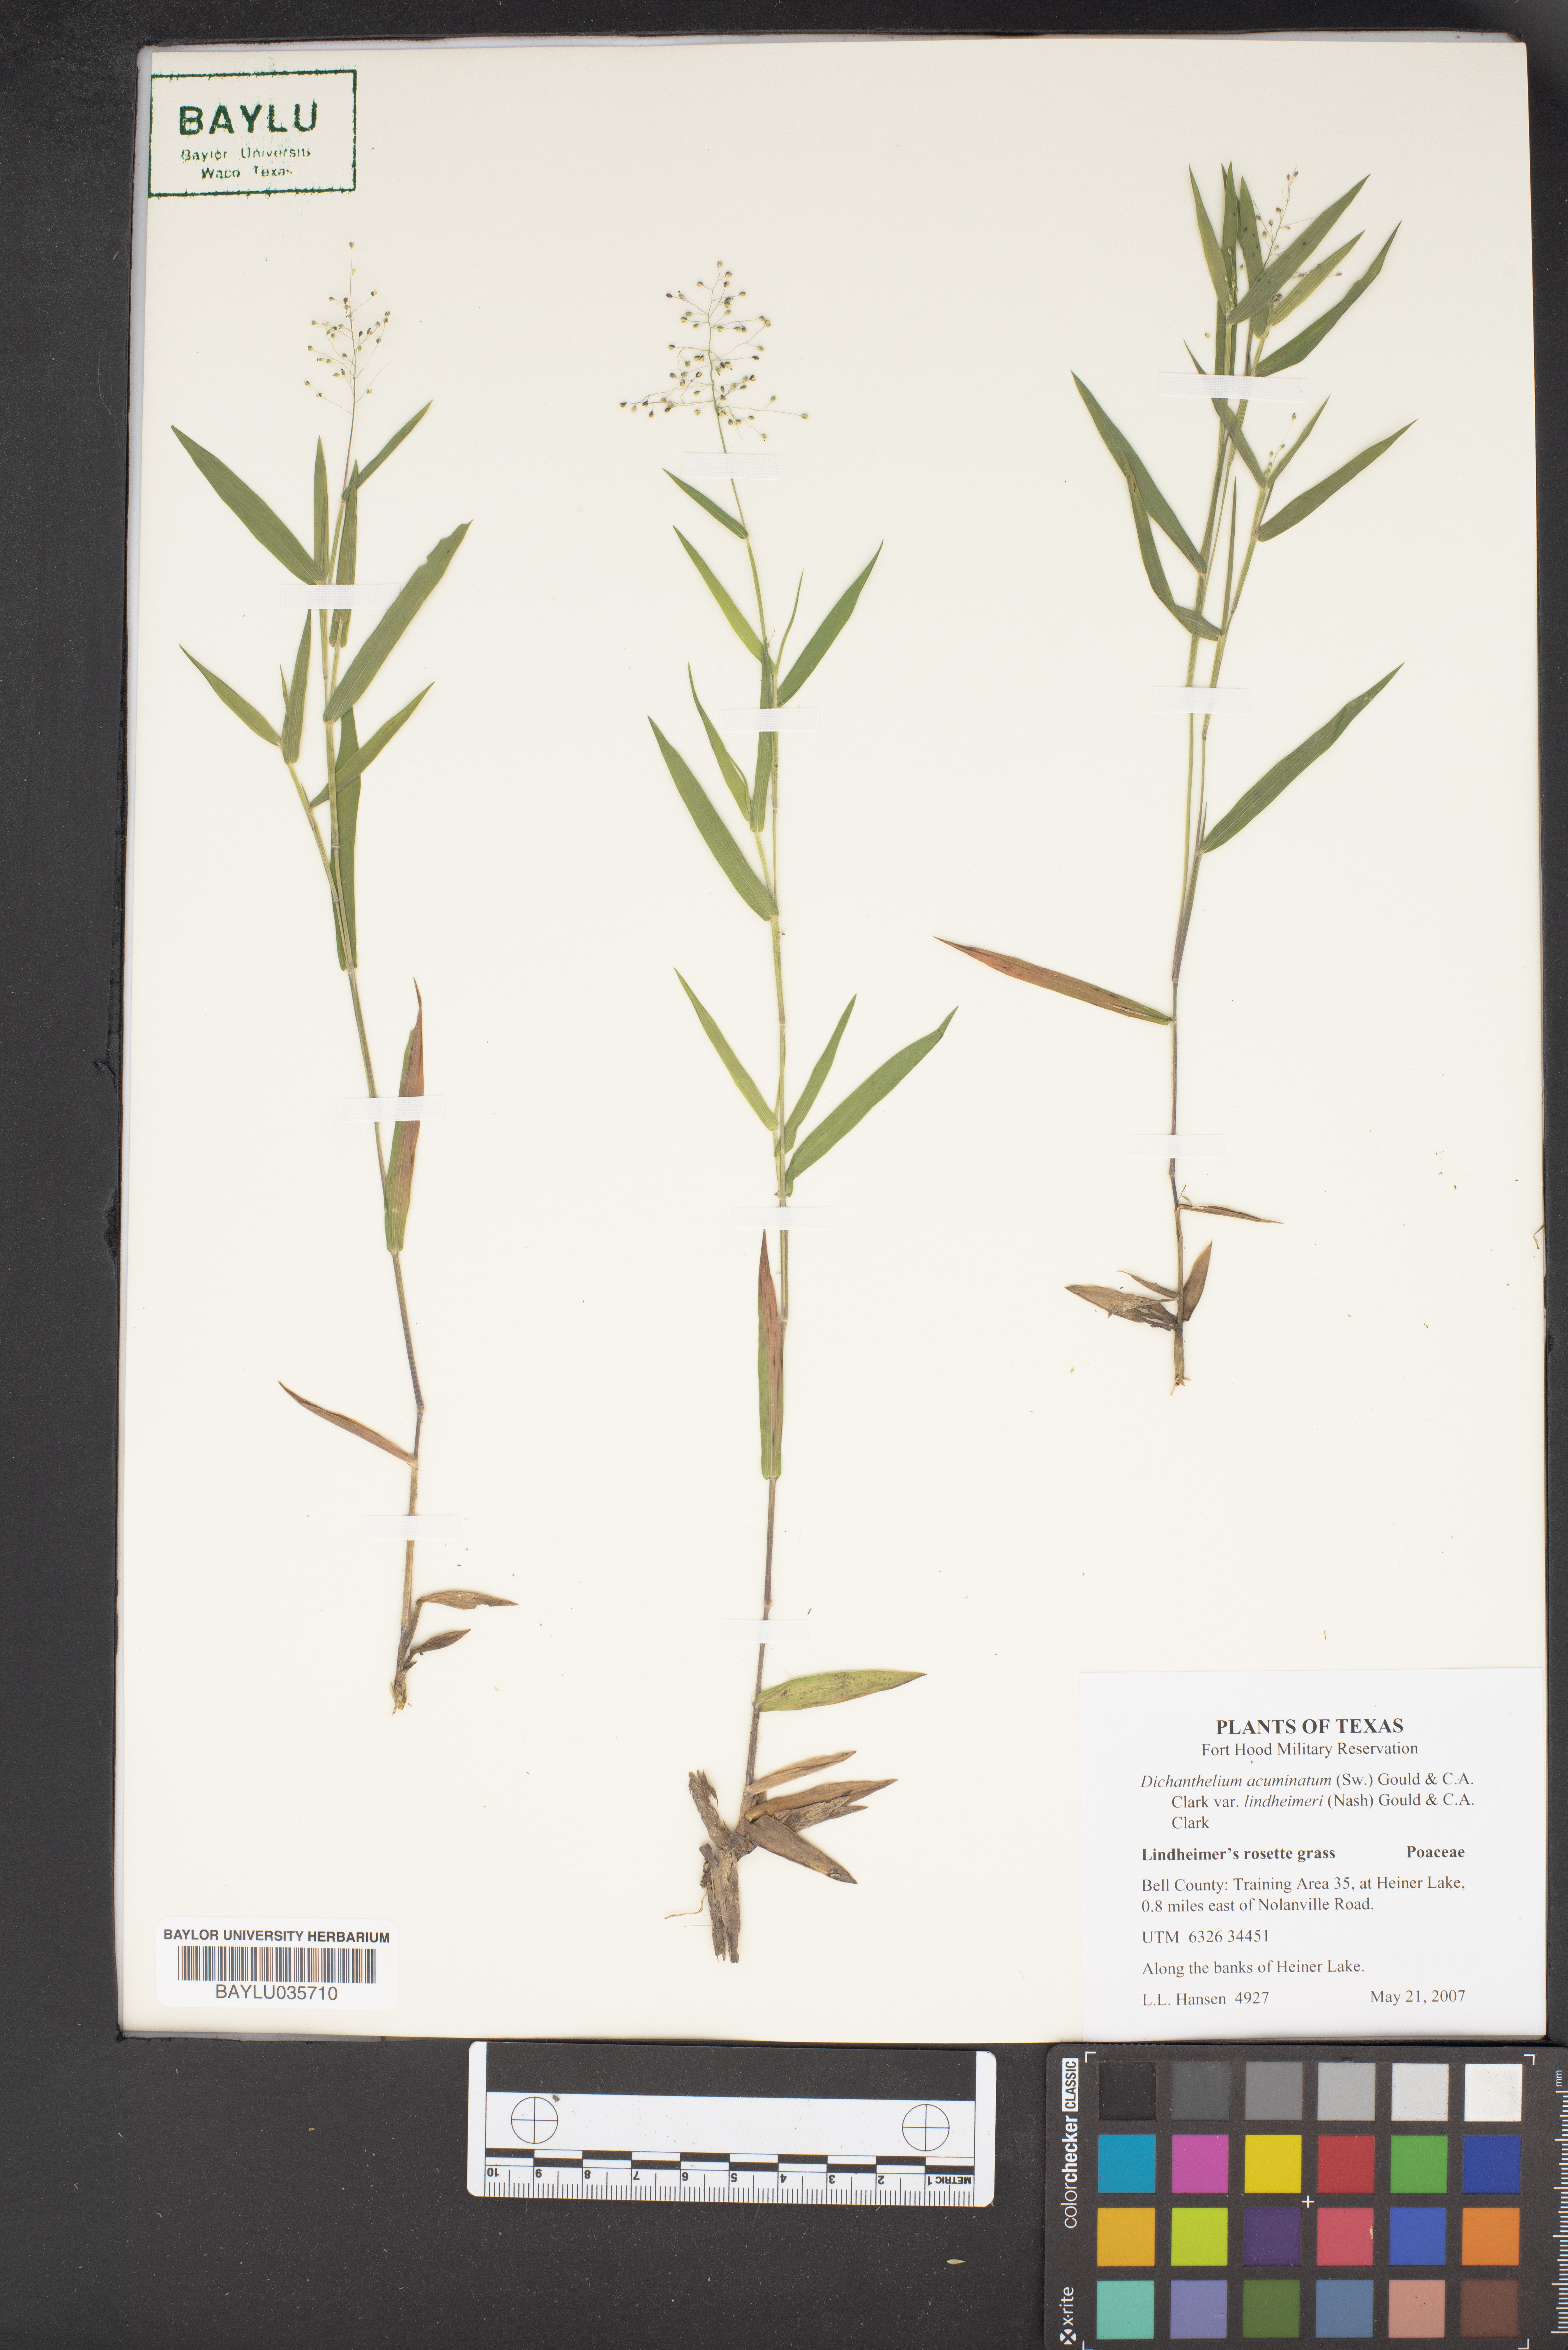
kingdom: Plantae
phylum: Tracheophyta
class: Liliopsida
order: Poales
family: Poaceae
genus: Dichanthelium
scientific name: Dichanthelium lindheimeri
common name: Lindheimer's panicgrass
